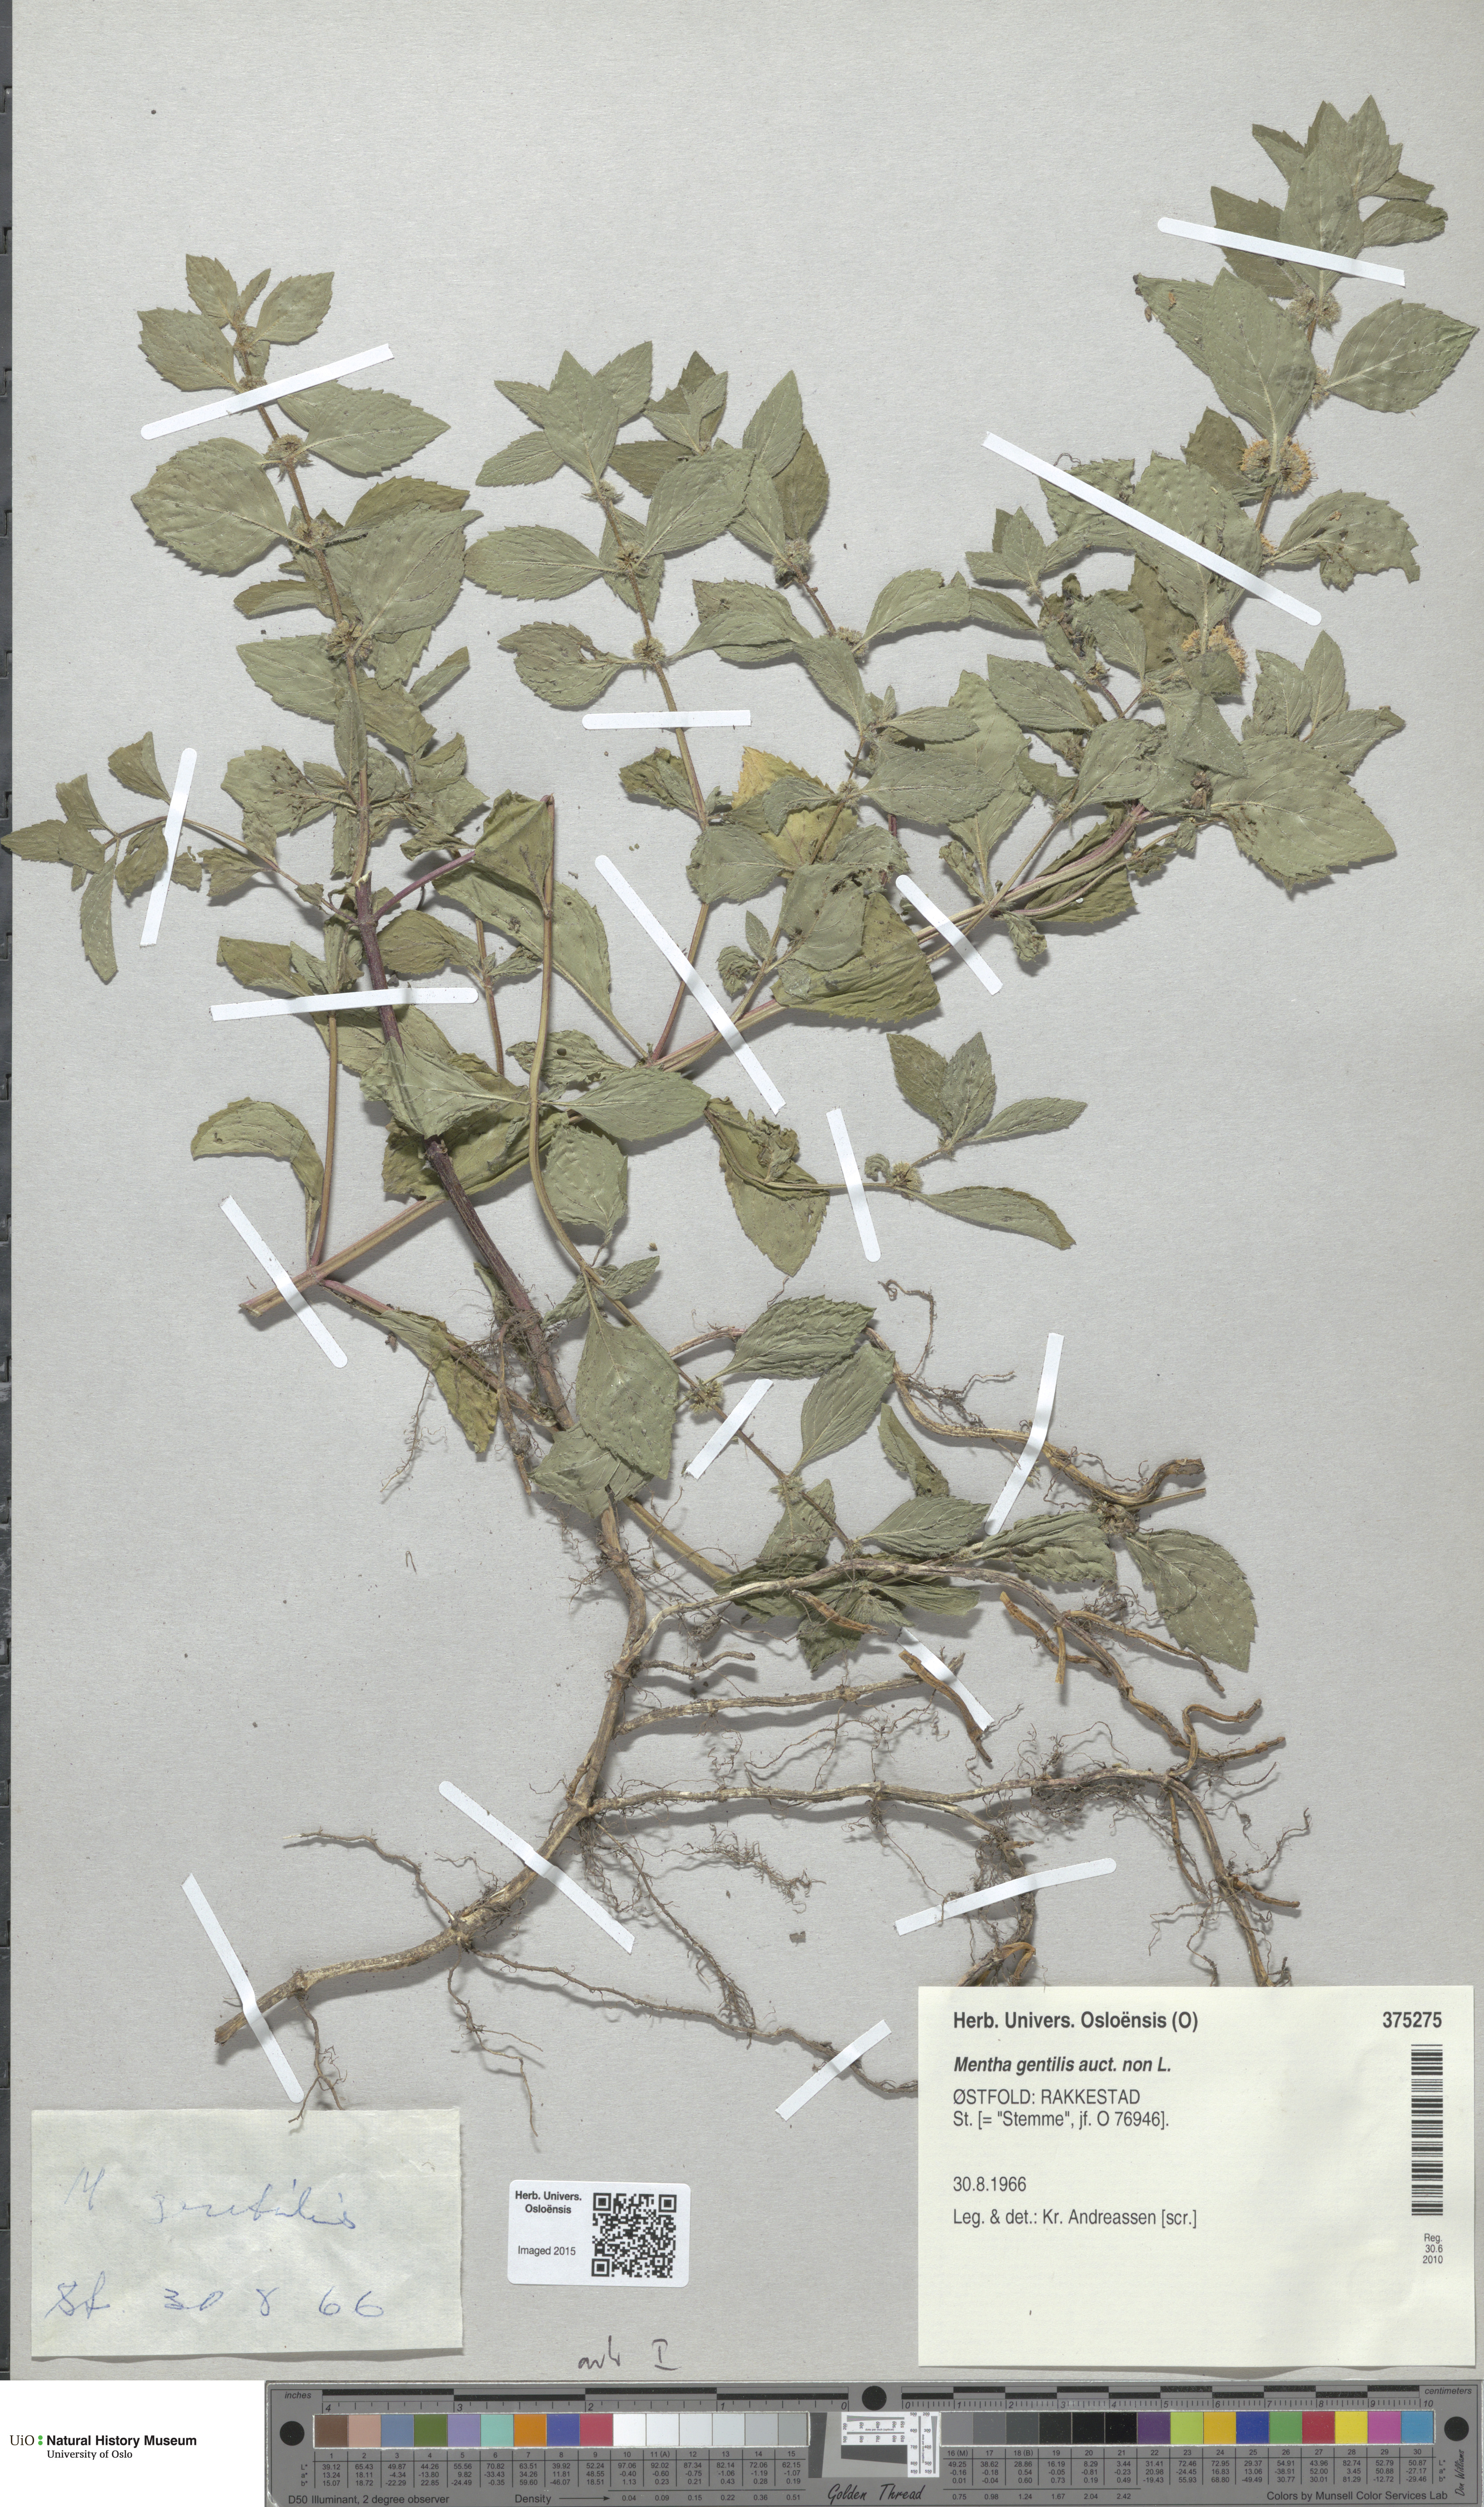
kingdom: Plantae
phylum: Tracheophyta
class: Magnoliopsida
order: Lamiales
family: Lamiaceae
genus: Mentha
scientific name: Mentha arvensis
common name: Corn mint
